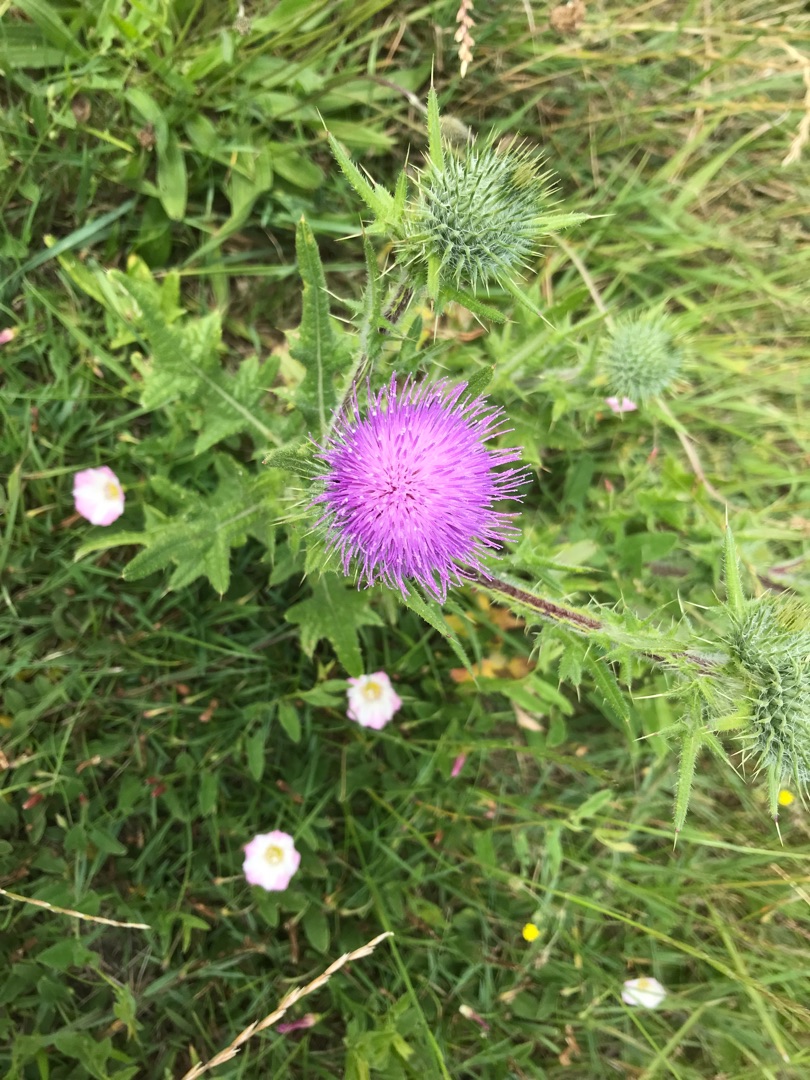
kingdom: Plantae
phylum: Tracheophyta
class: Magnoliopsida
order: Asterales
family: Asteraceae
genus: Cirsium
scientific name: Cirsium vulgare
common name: Horse-tidsel
